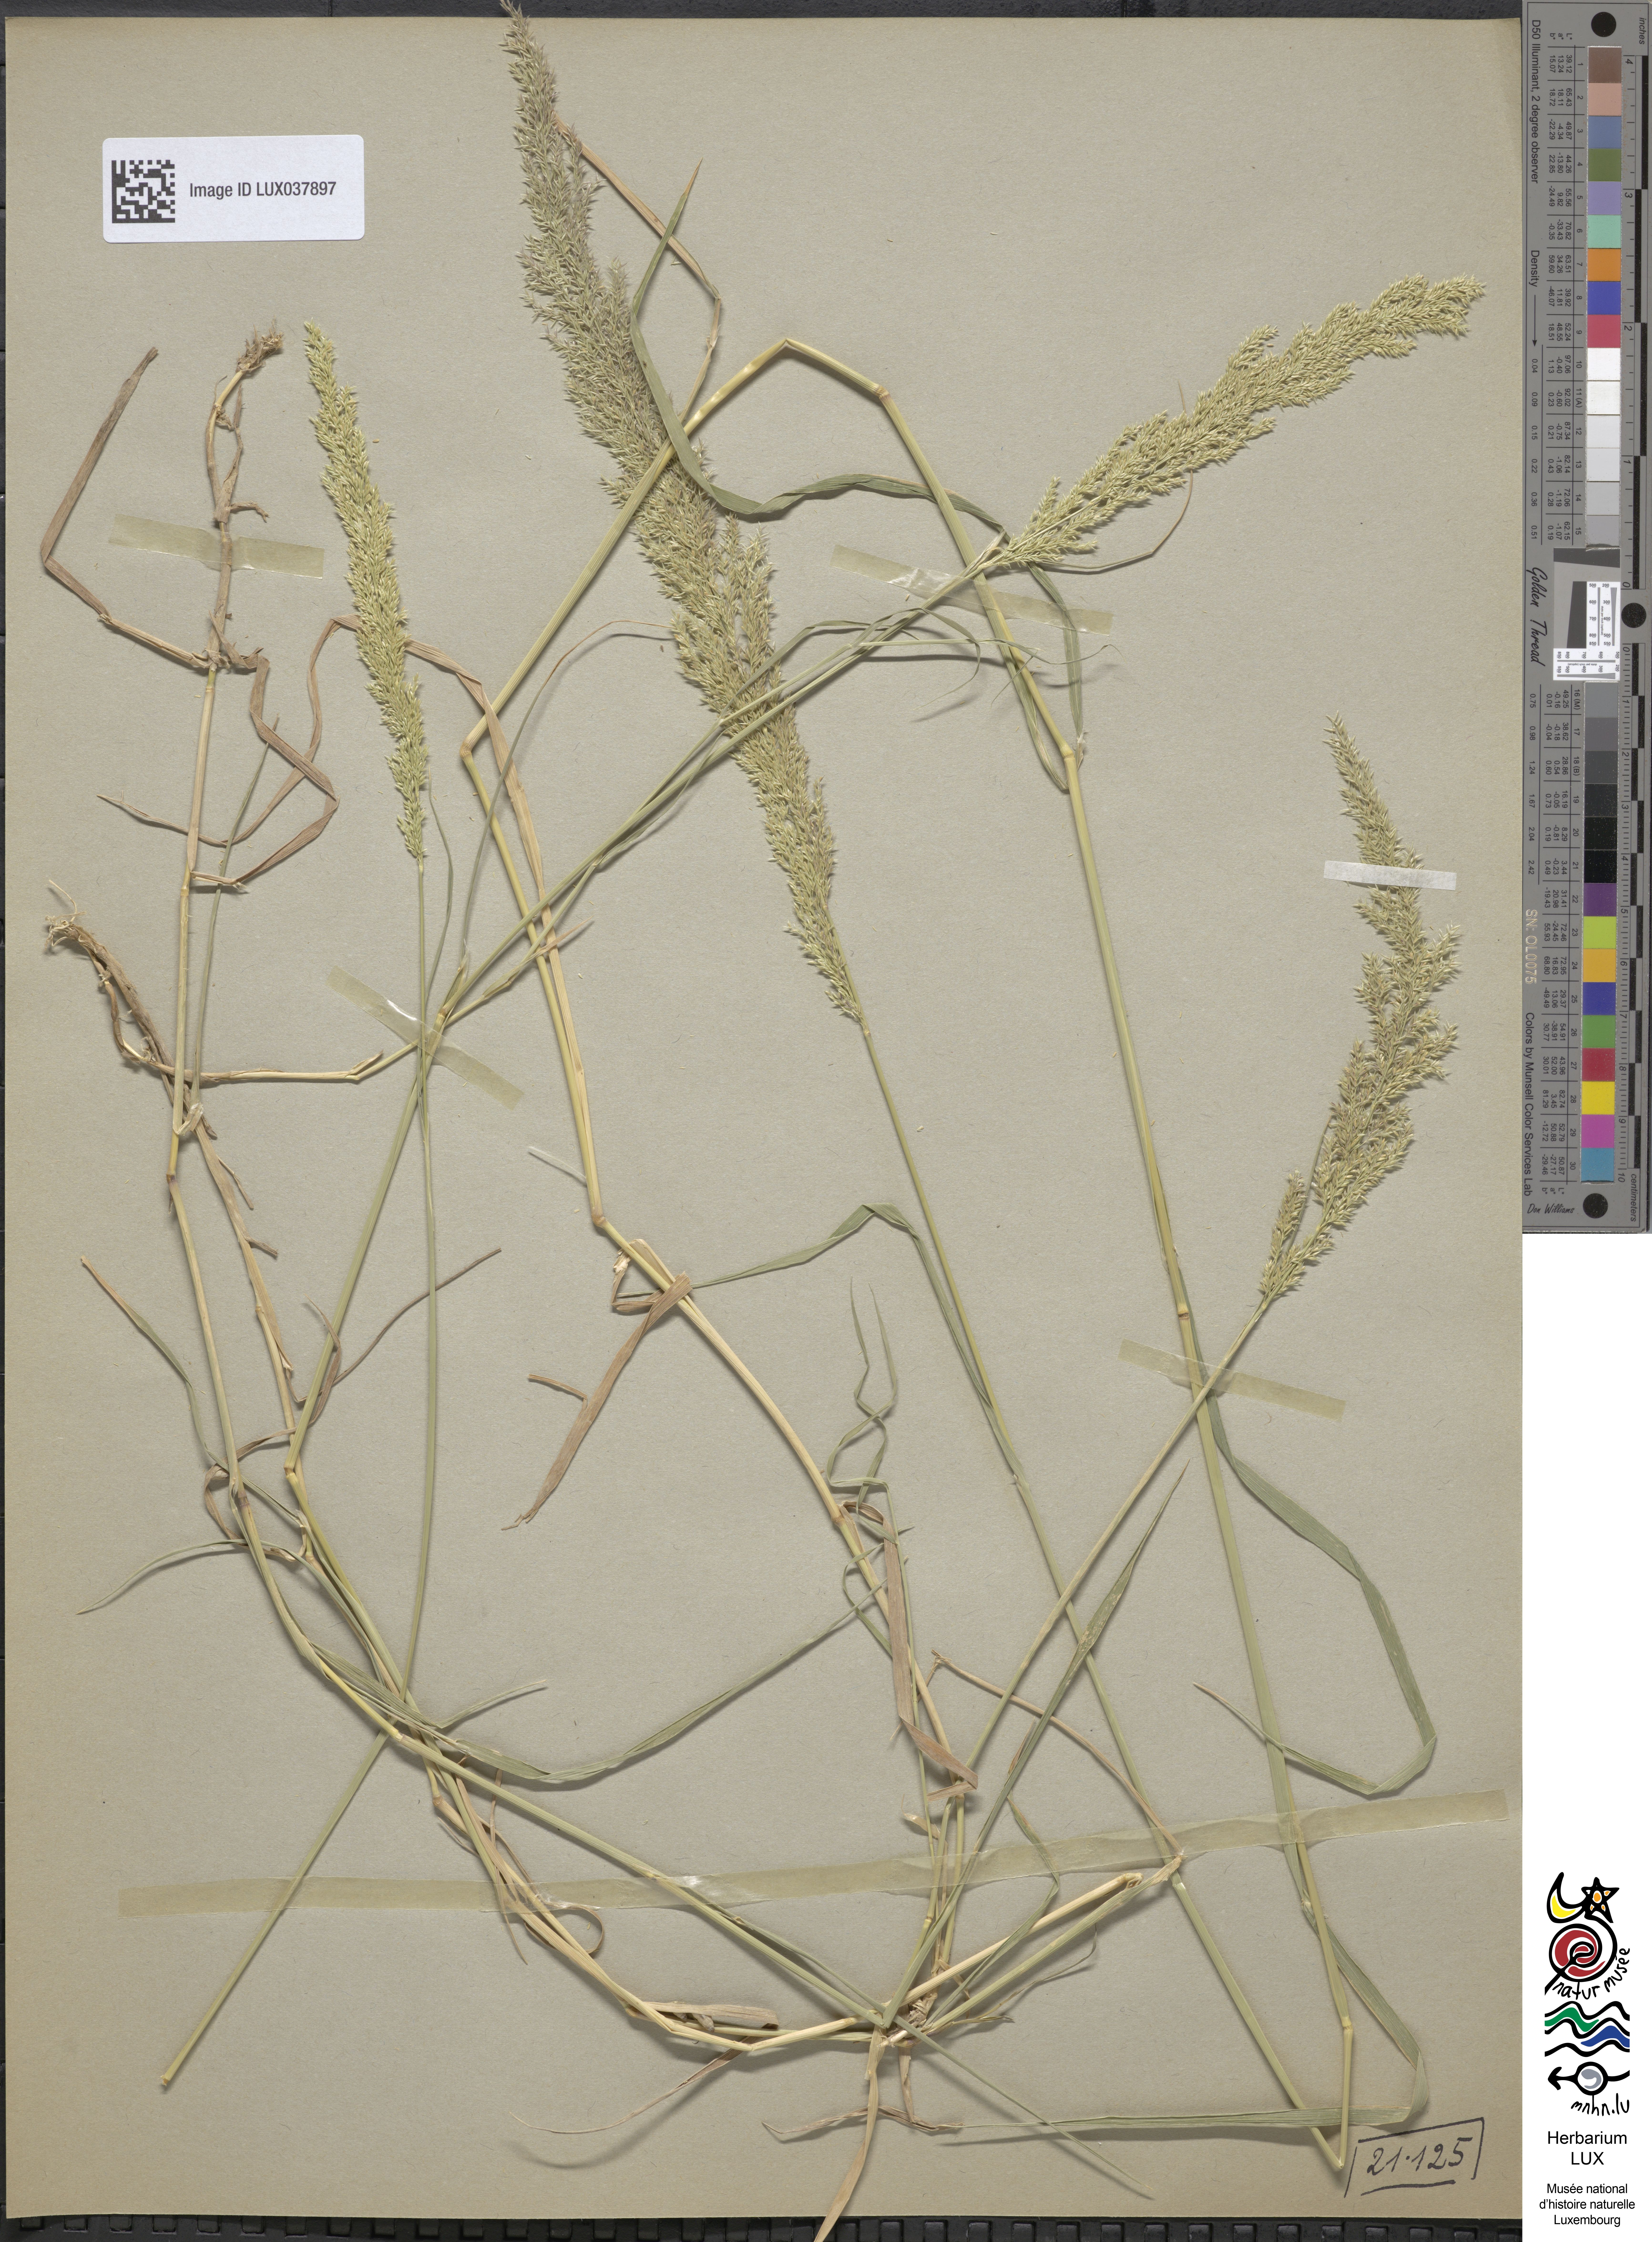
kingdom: Plantae
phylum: Tracheophyta
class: Liliopsida
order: Poales
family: Poaceae
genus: Poa
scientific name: Poa nemoralis
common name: Wood bluegrass
